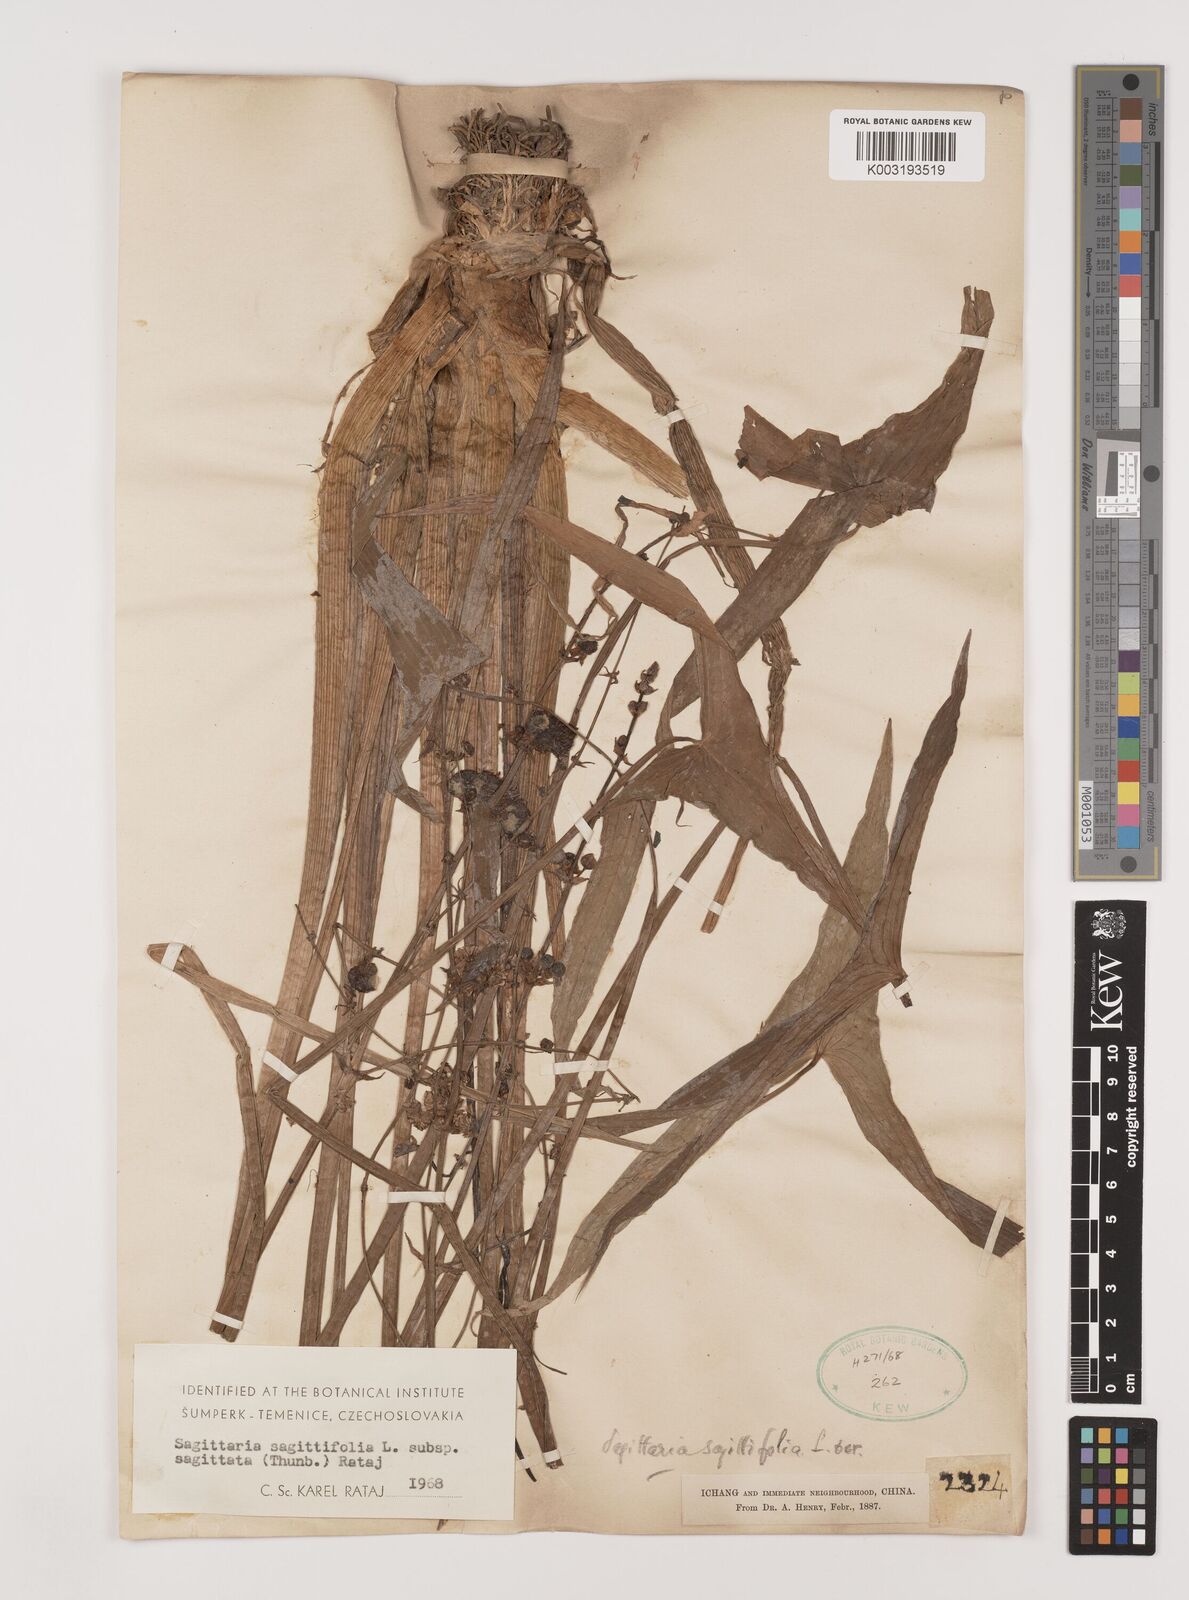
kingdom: Plantae
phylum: Tracheophyta
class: Liliopsida
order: Alismatales
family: Alismataceae
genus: Sagittaria
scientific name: Sagittaria sagittifolia
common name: Arrowhead
